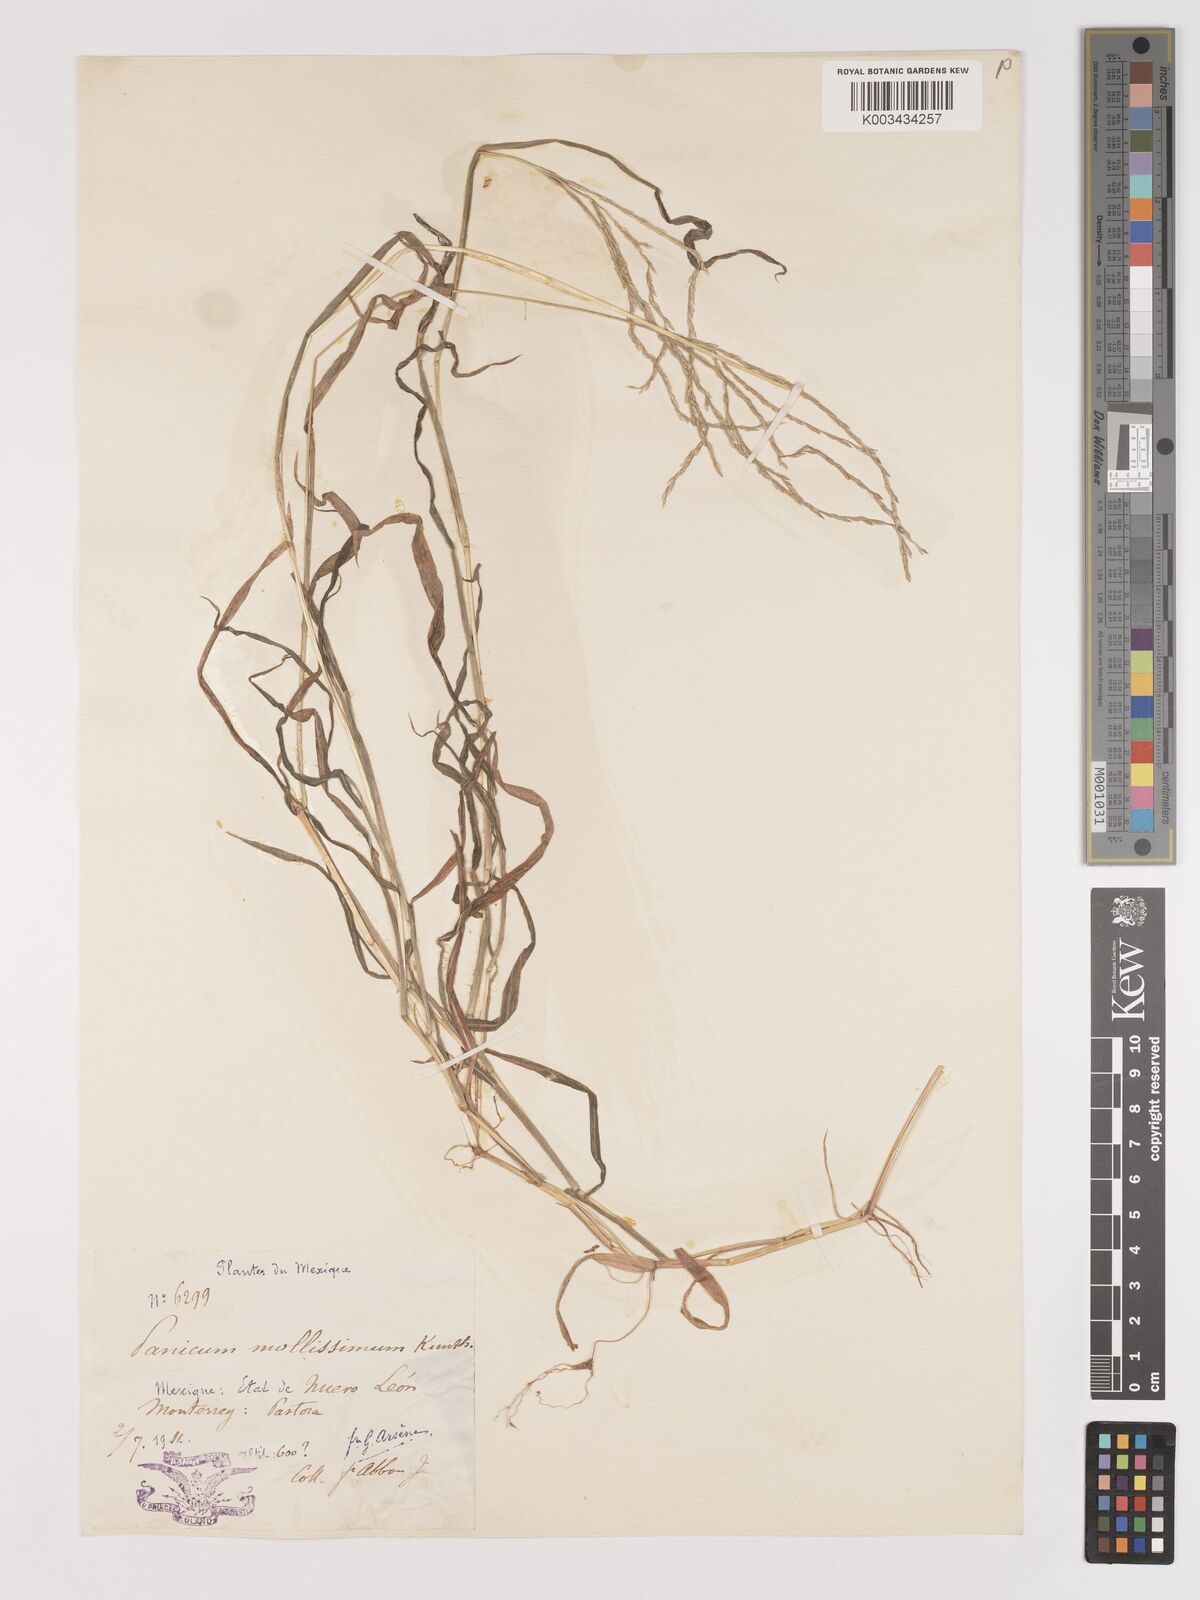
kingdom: Plantae
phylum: Tracheophyta
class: Liliopsida
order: Poales
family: Poaceae
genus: Digitaria
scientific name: Digitaria leucites
